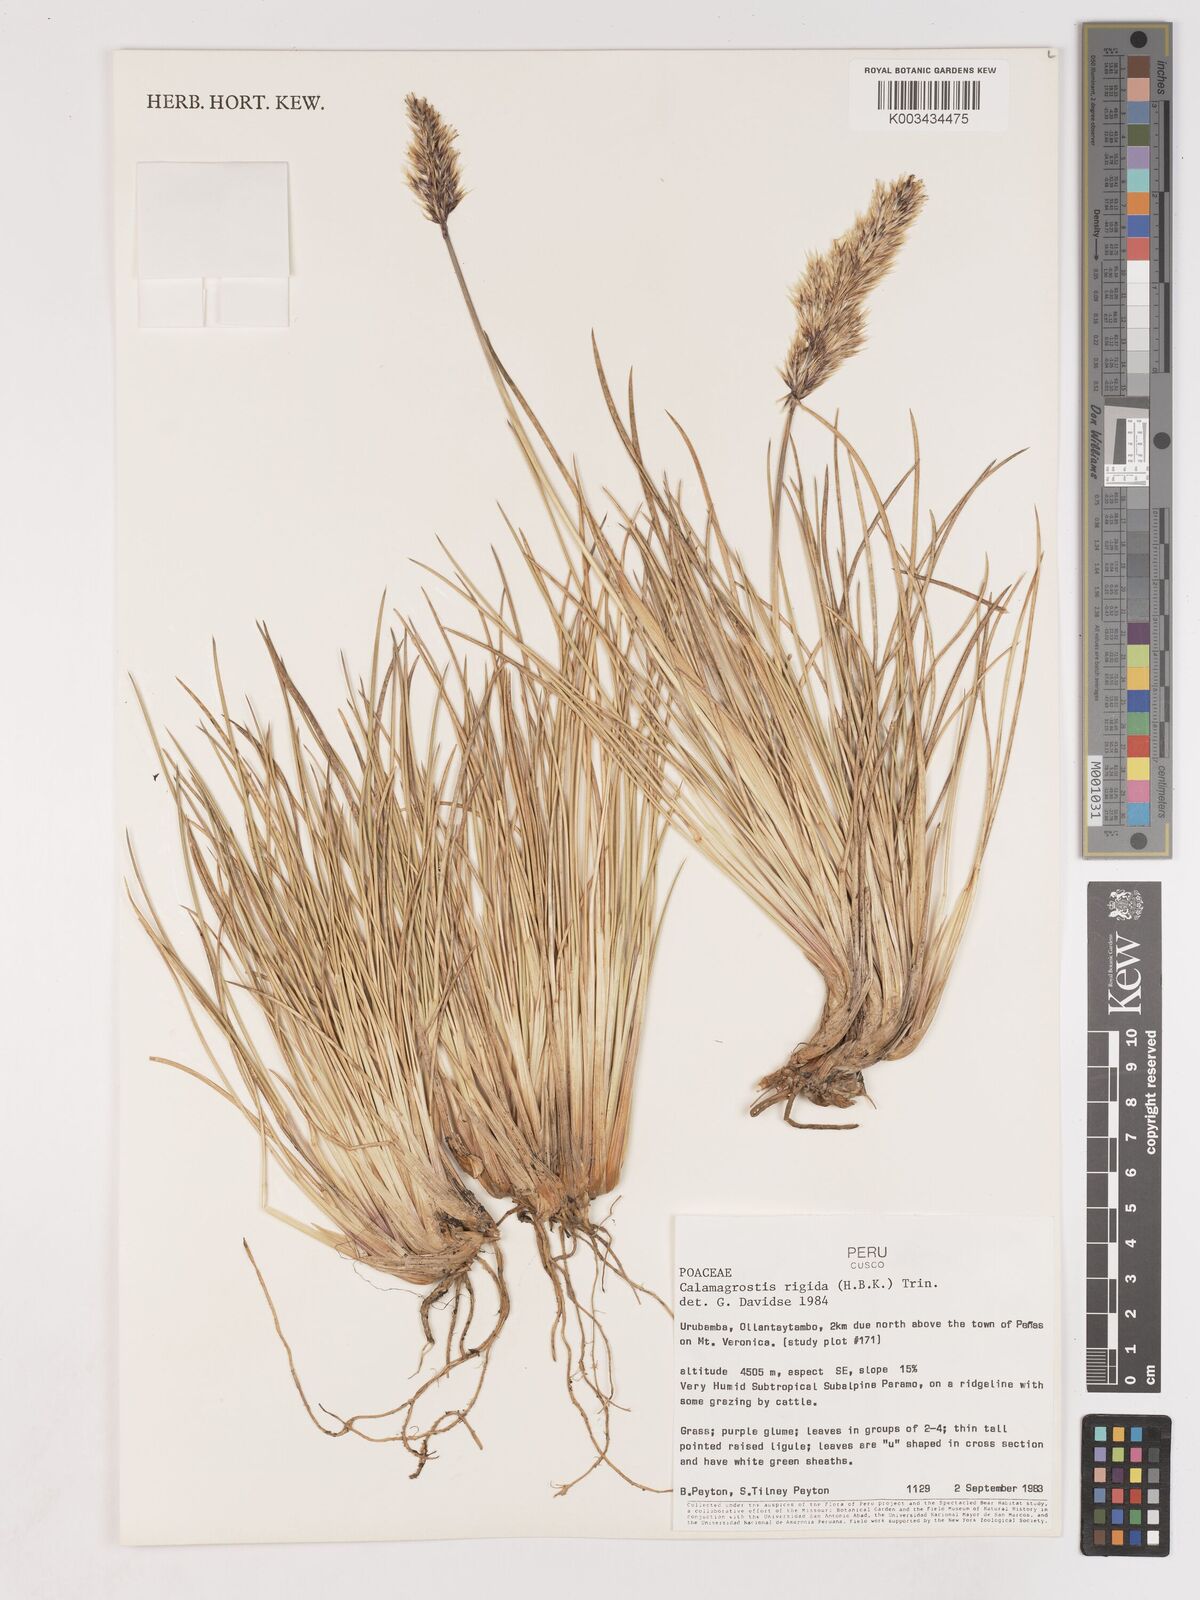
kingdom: Plantae
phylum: Tracheophyta
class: Liliopsida
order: Poales
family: Poaceae
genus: Cinnagrostis
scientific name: Cinnagrostis rigida
